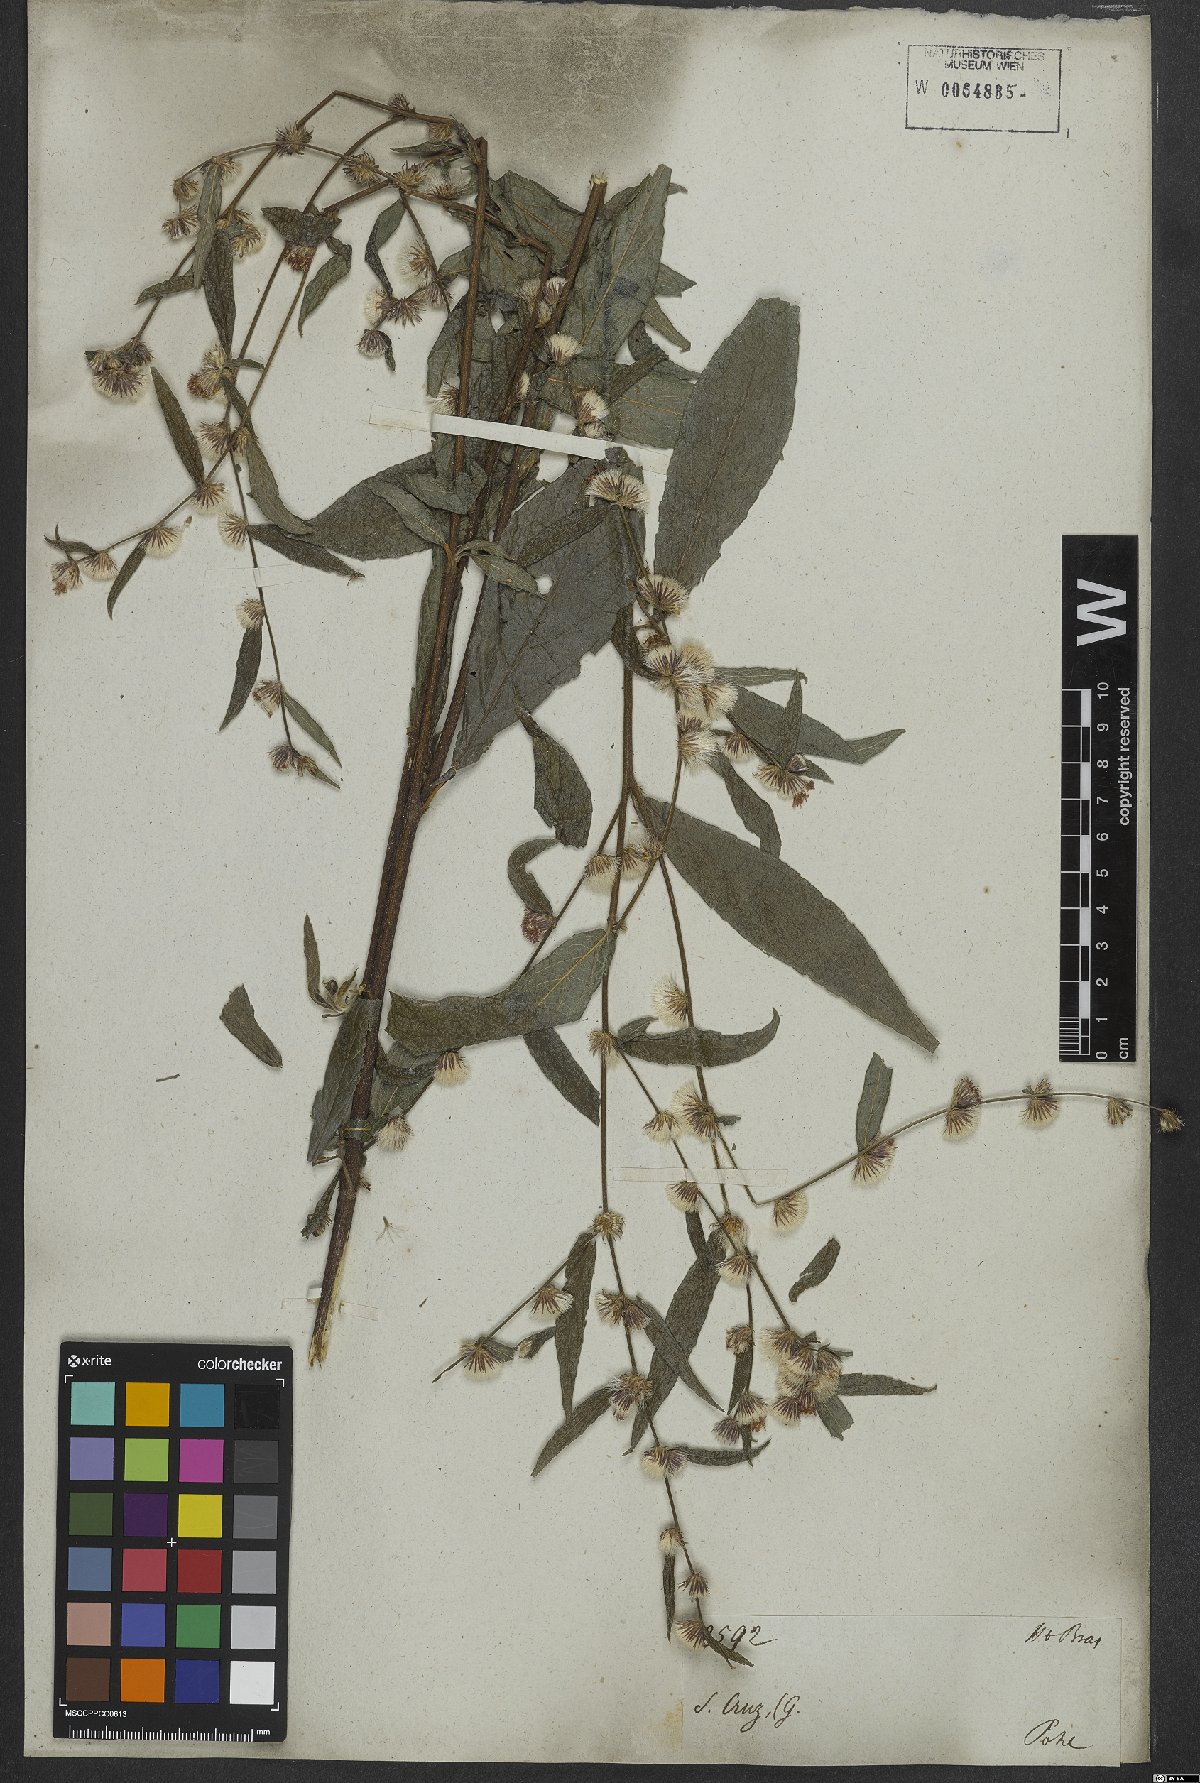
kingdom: Plantae
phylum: Tracheophyta
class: Magnoliopsida
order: Asterales
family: Asteraceae
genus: Lepidaploa
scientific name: Lepidaploa sericea
